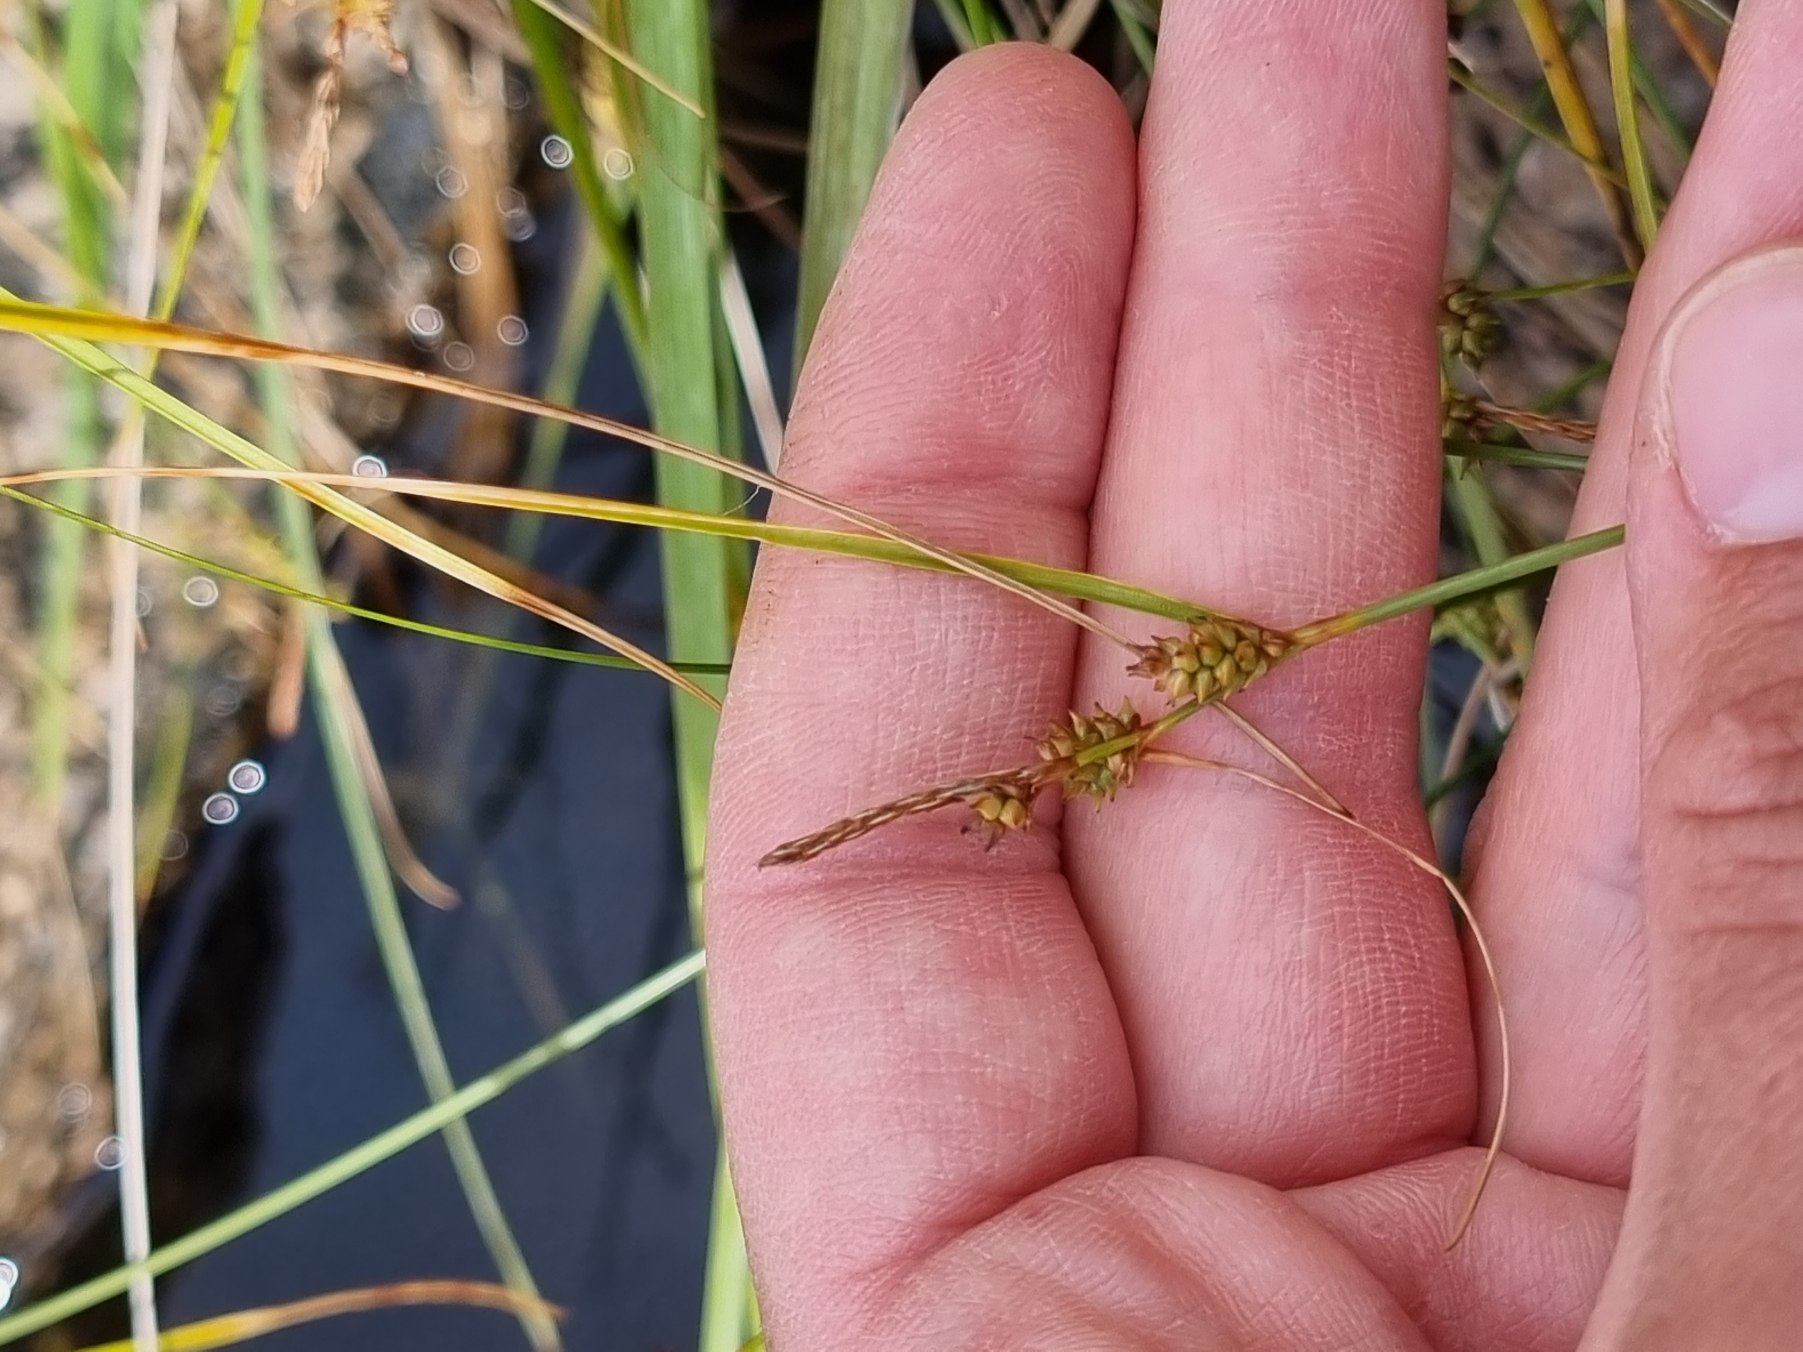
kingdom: Plantae
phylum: Tracheophyta
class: Liliopsida
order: Poales
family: Cyperaceae
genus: Carex
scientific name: Carex extensa
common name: Udspilet star
